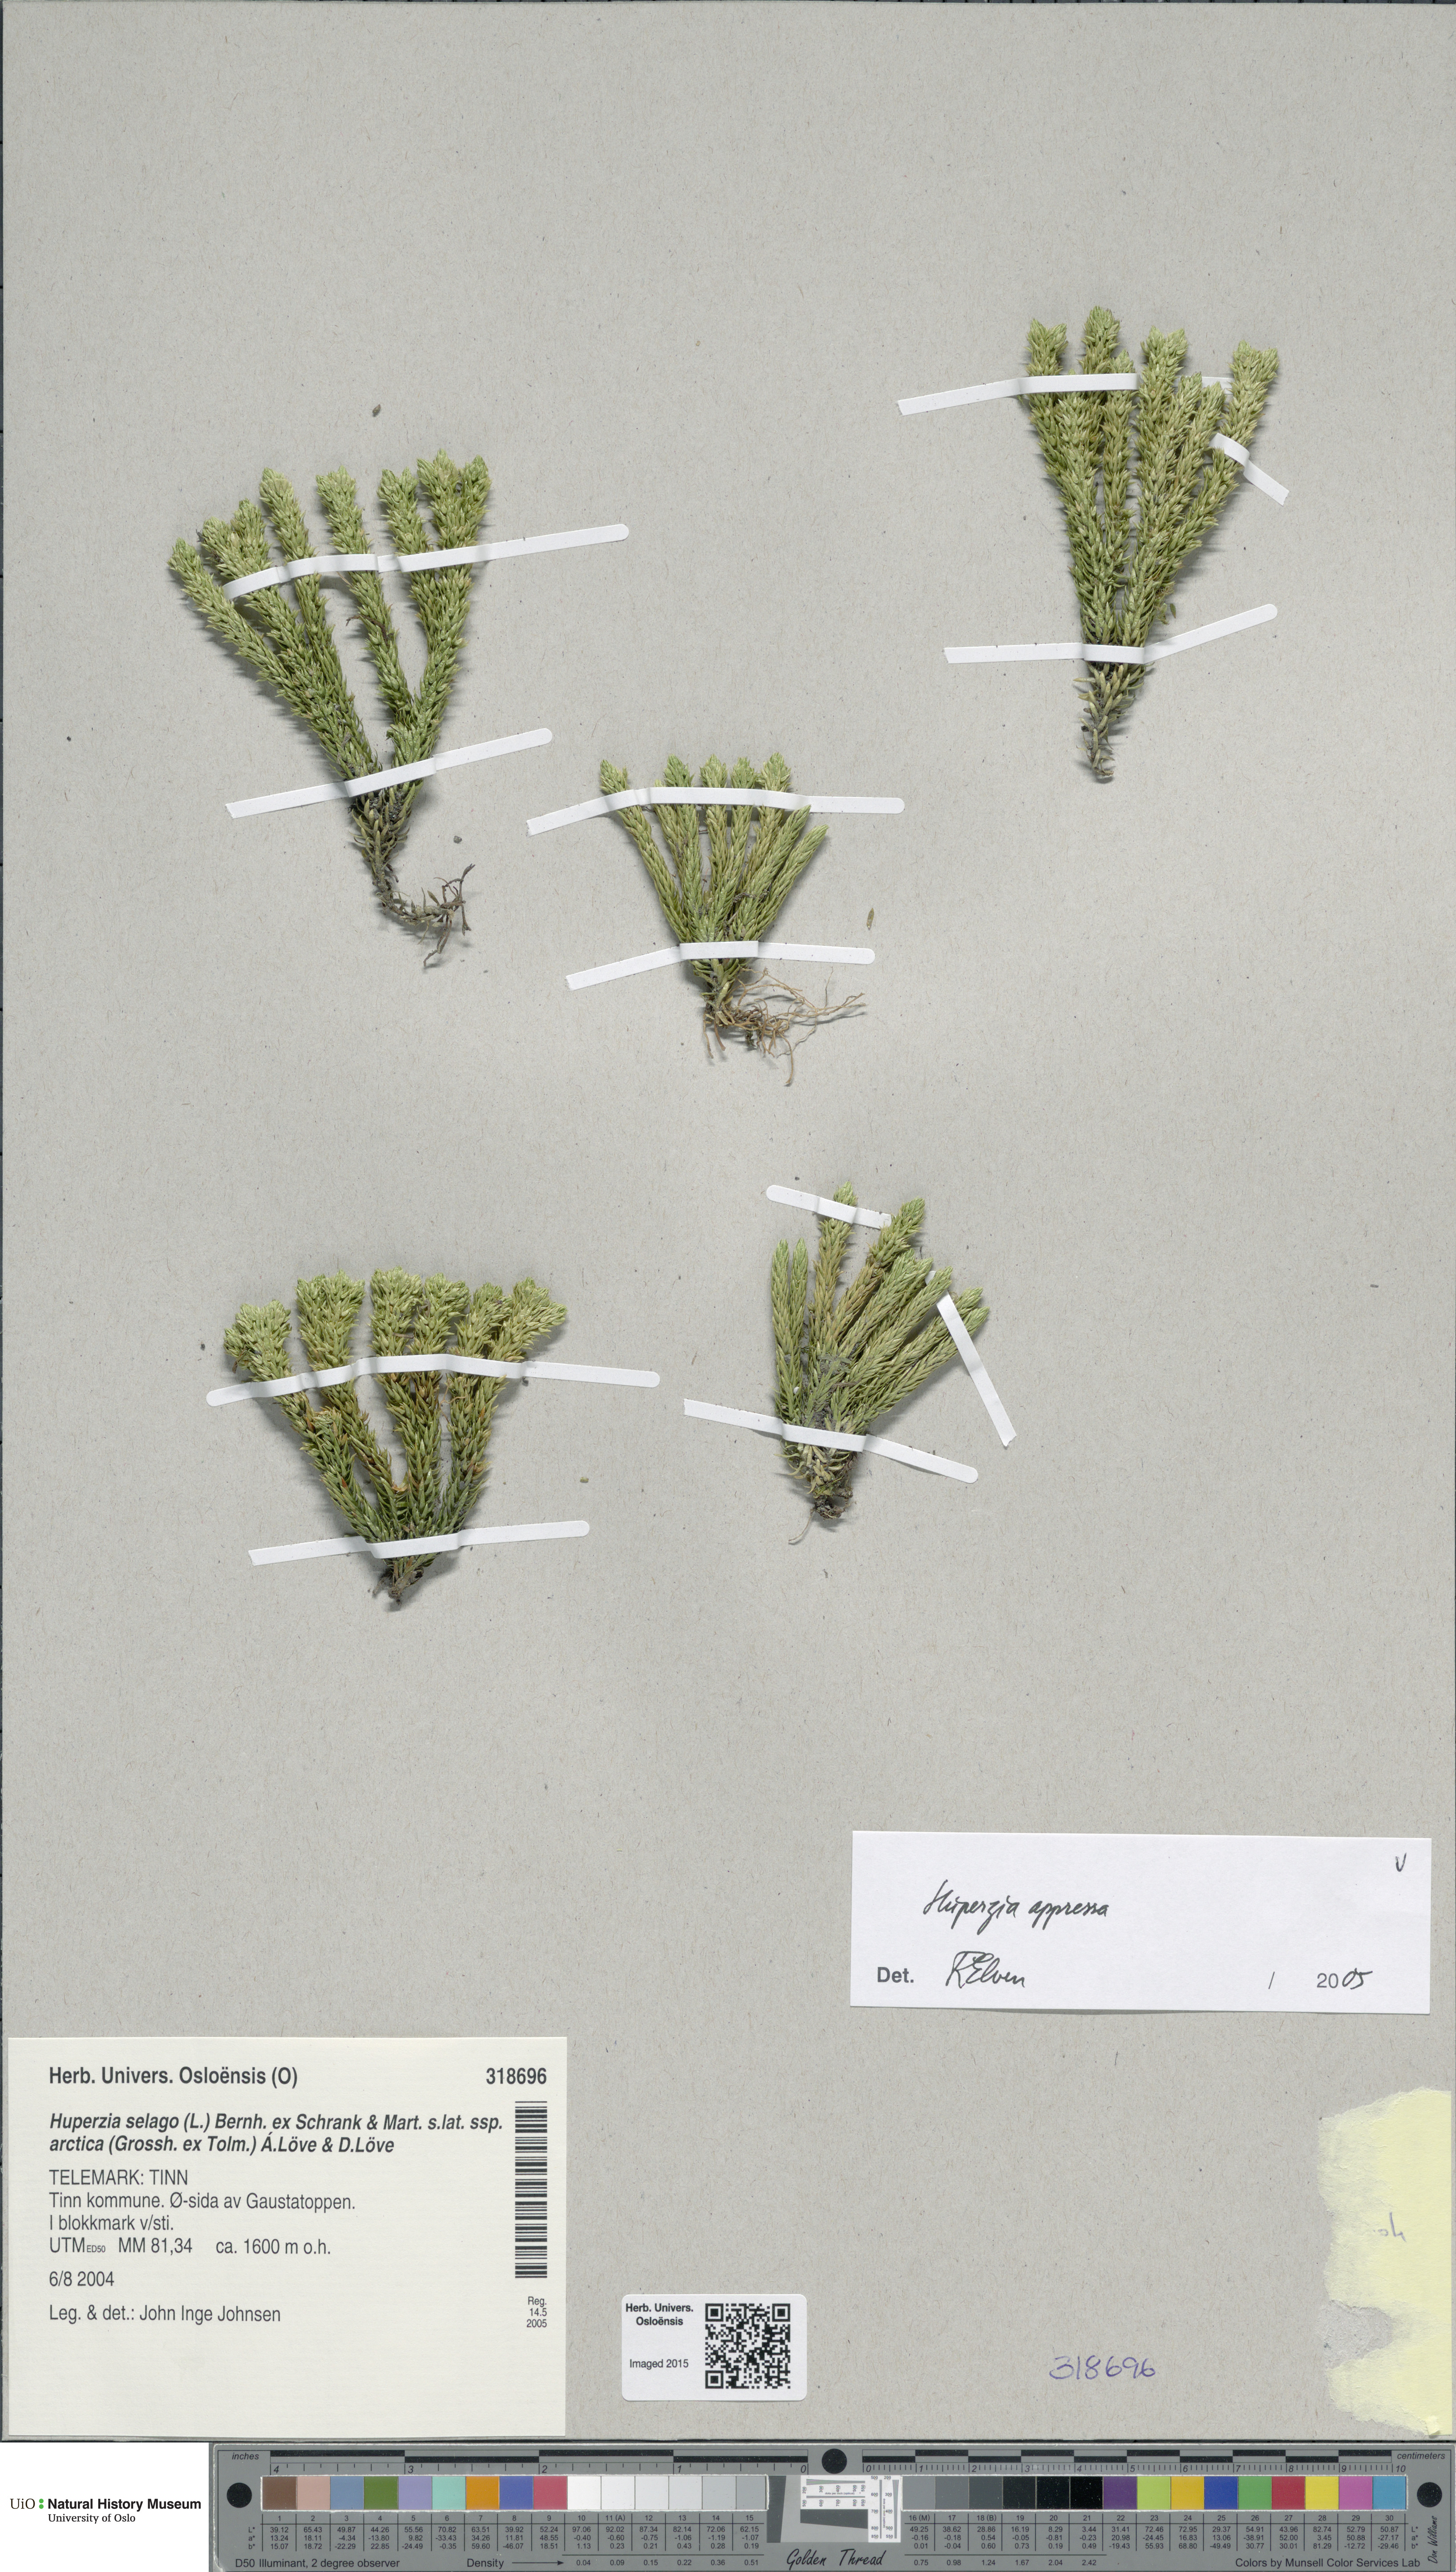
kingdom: Plantae
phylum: Tracheophyta
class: Lycopodiopsida
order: Lycopodiales
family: Lycopodiaceae
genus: Huperzia
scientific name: Huperzia selago
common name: Northern firmoss
